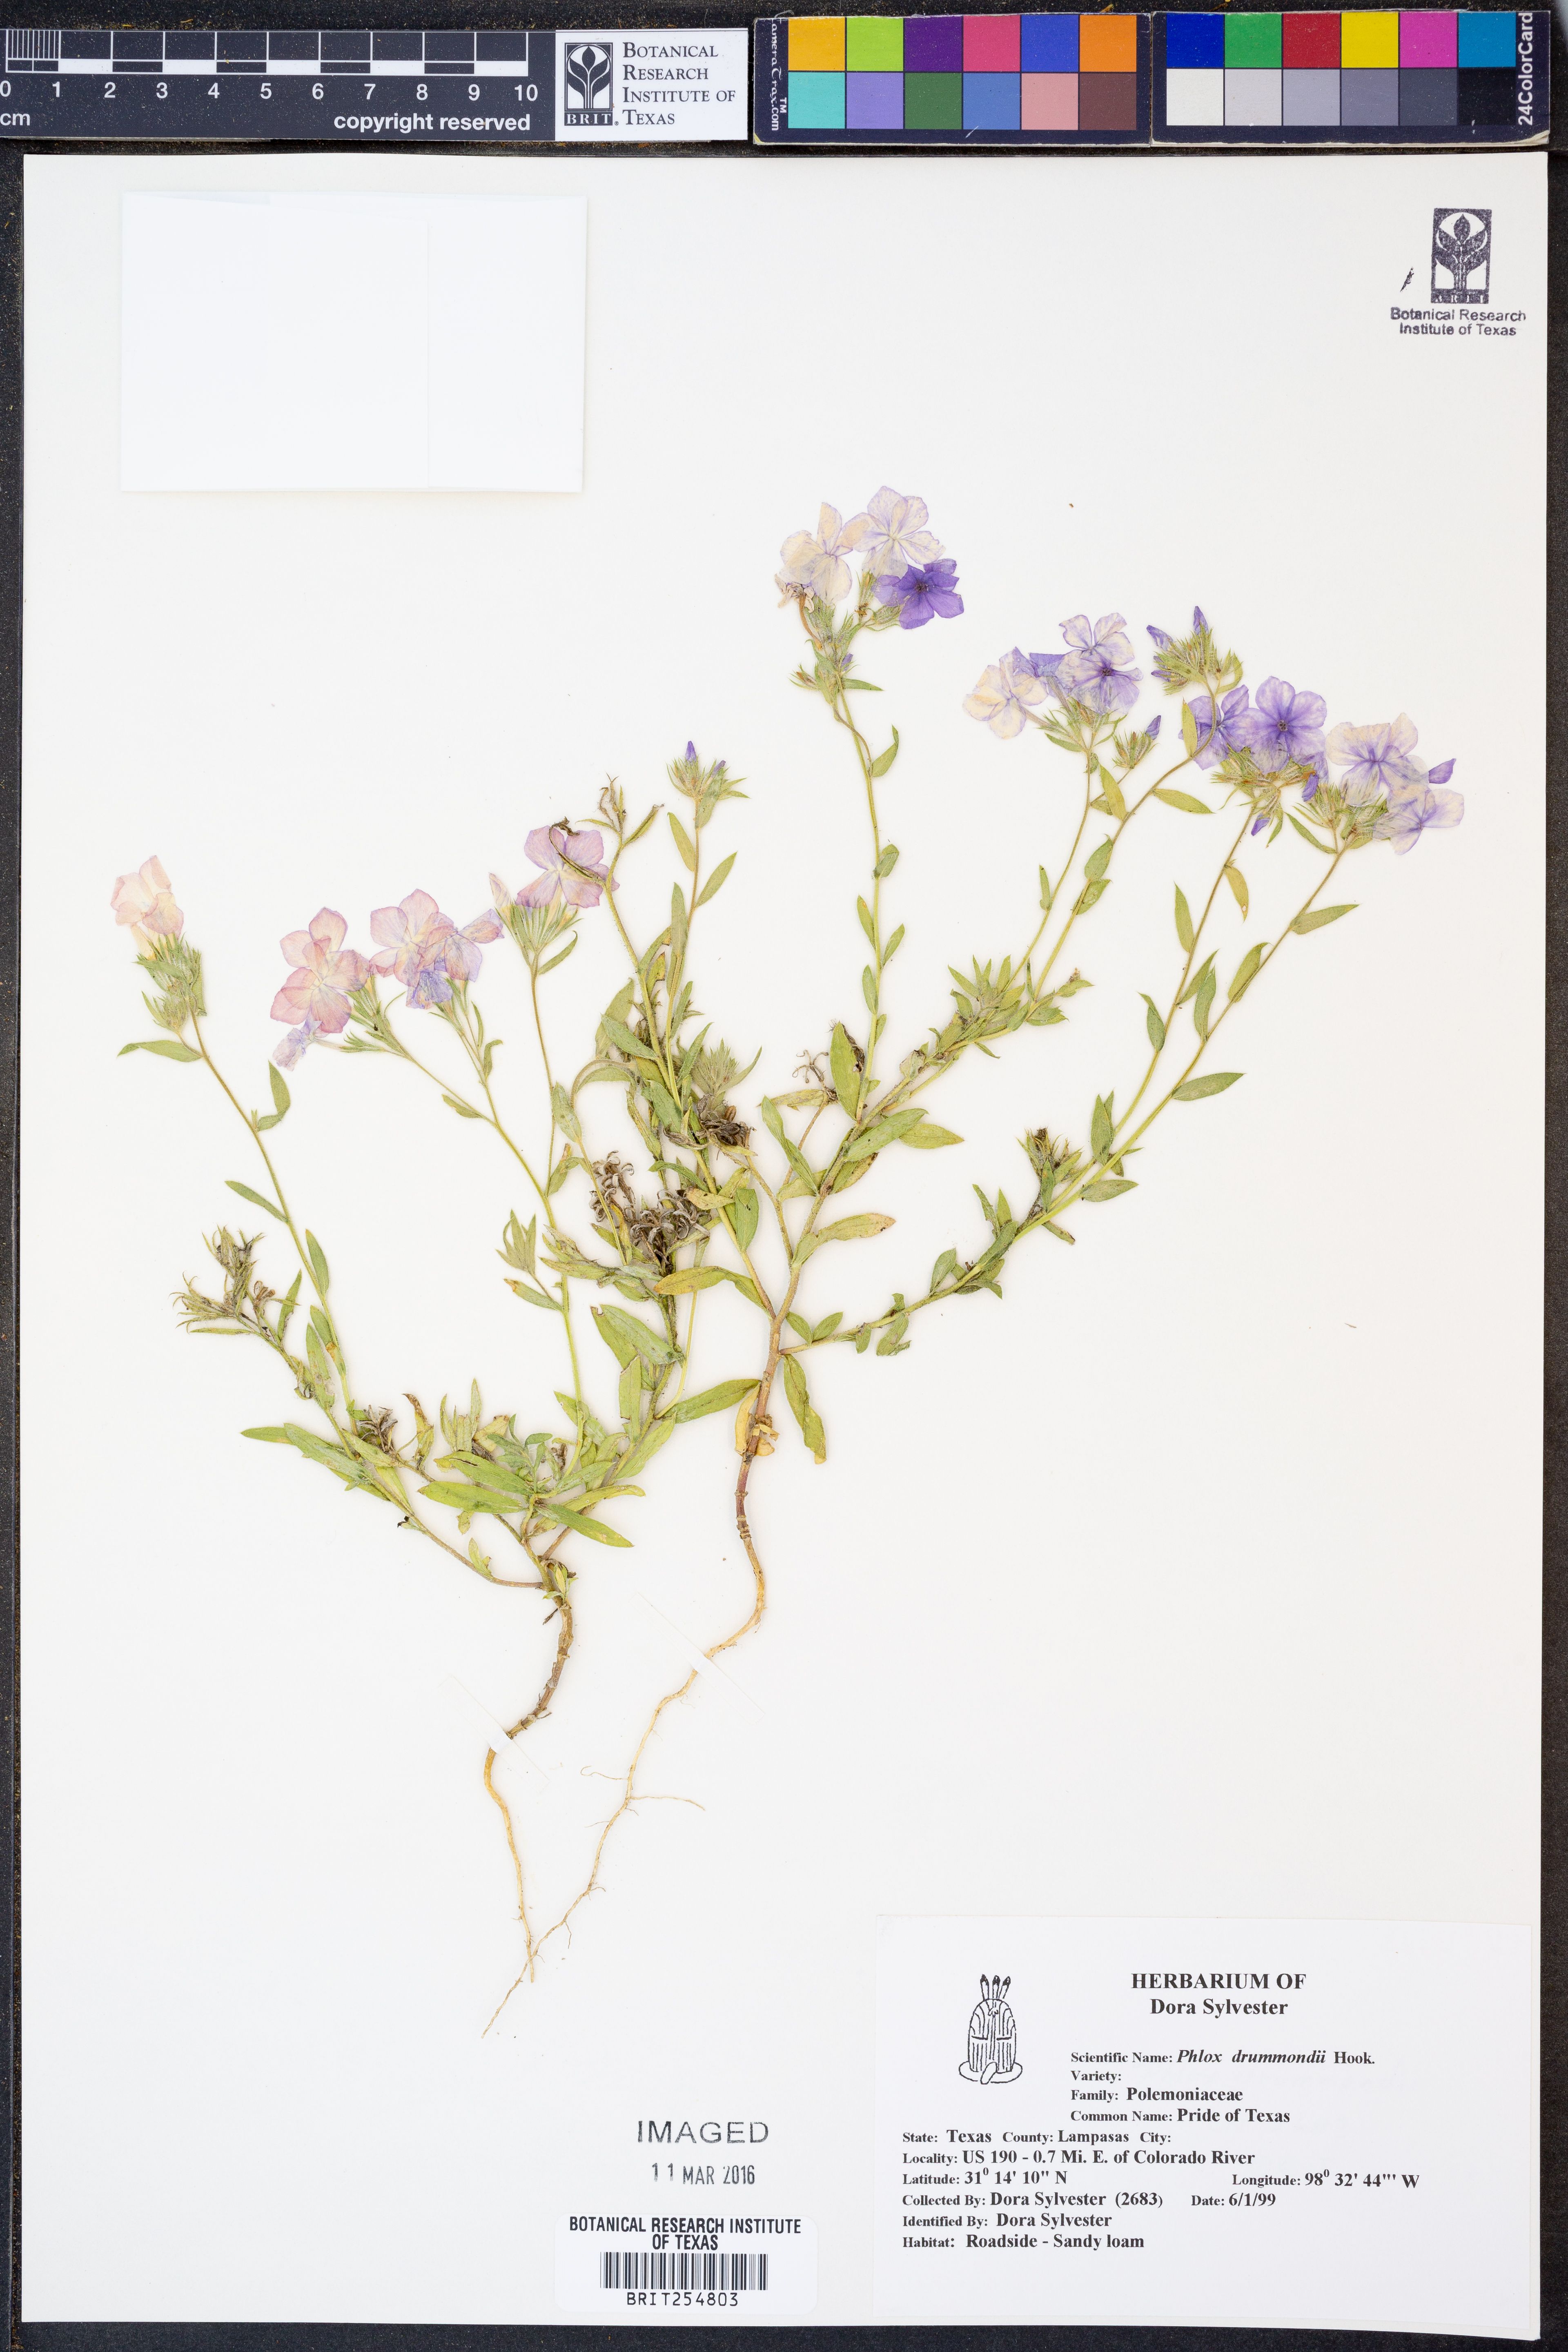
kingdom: Plantae
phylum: Tracheophyta
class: Magnoliopsida
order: Ericales
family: Polemoniaceae
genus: Phlox
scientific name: Phlox drummondii
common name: Drummond's phlox
